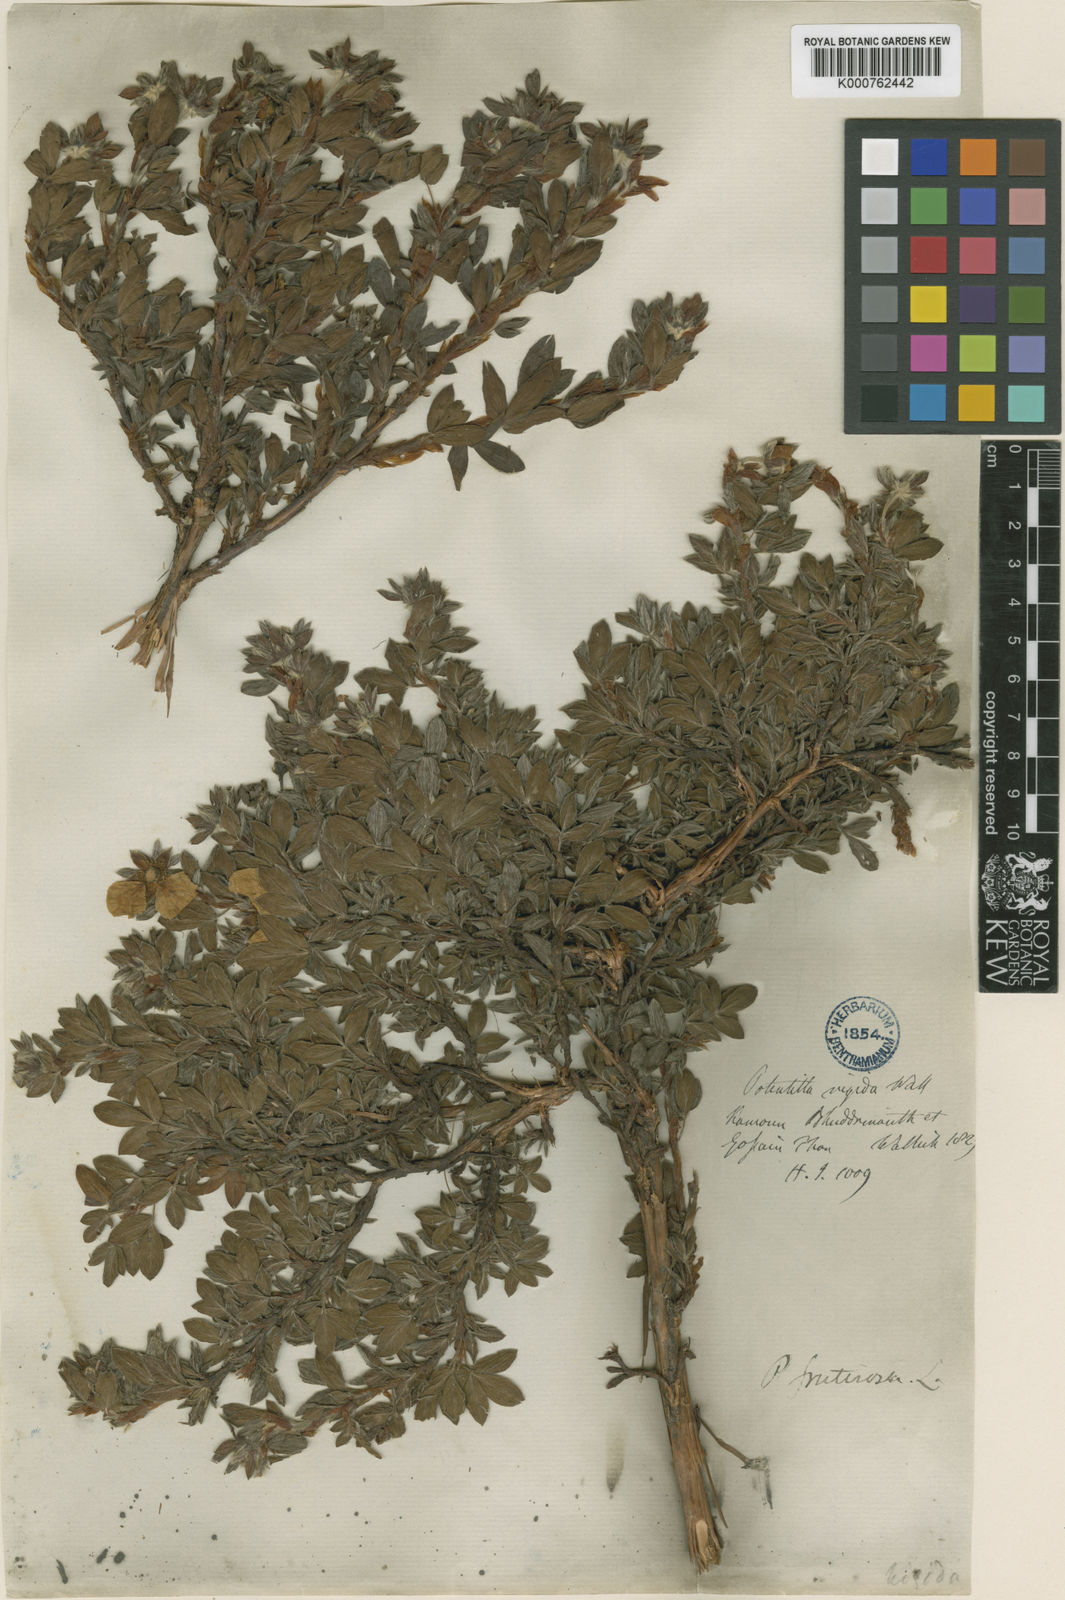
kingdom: Plantae
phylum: Tracheophyta
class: Magnoliopsida
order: Rosales
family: Rosaceae
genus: Dasiphora
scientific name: Dasiphora fruticosa
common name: Shrubby cinquefoil
